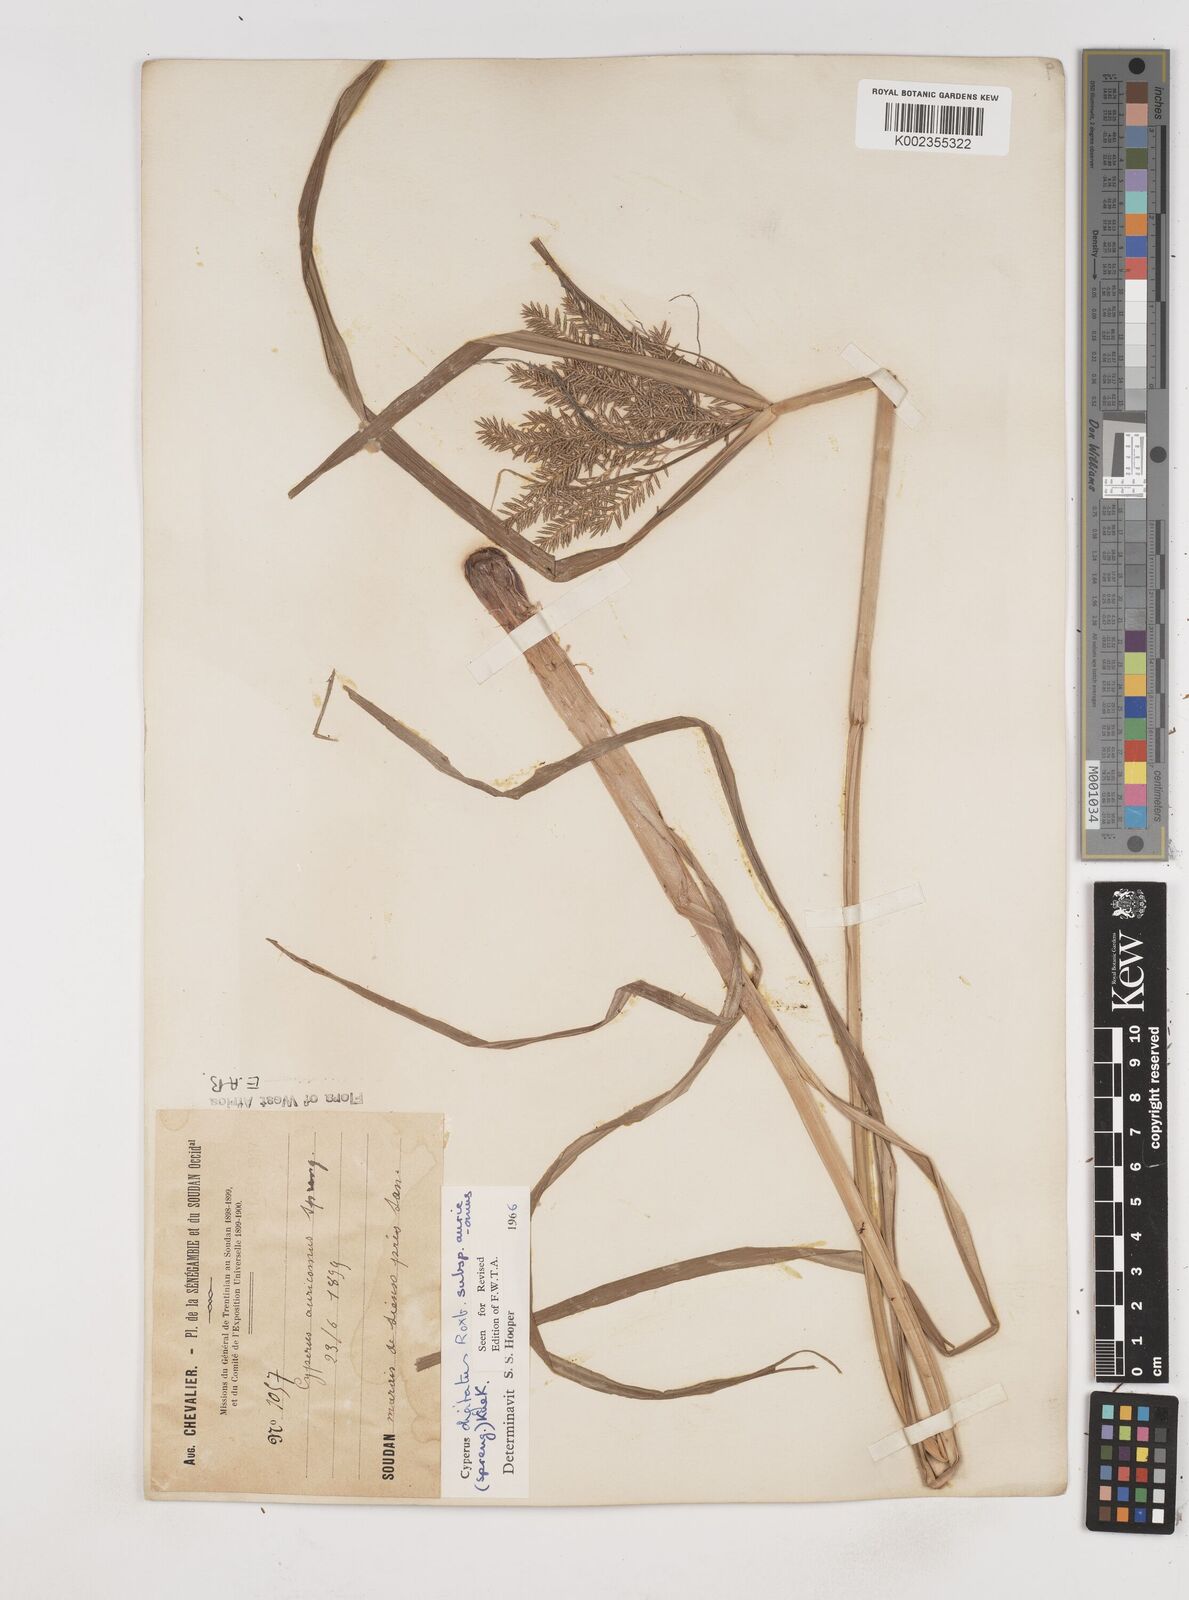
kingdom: Plantae
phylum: Tracheophyta
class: Liliopsida
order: Poales
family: Cyperaceae
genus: Cyperus
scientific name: Cyperus digitatus
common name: Finger flatsedge
